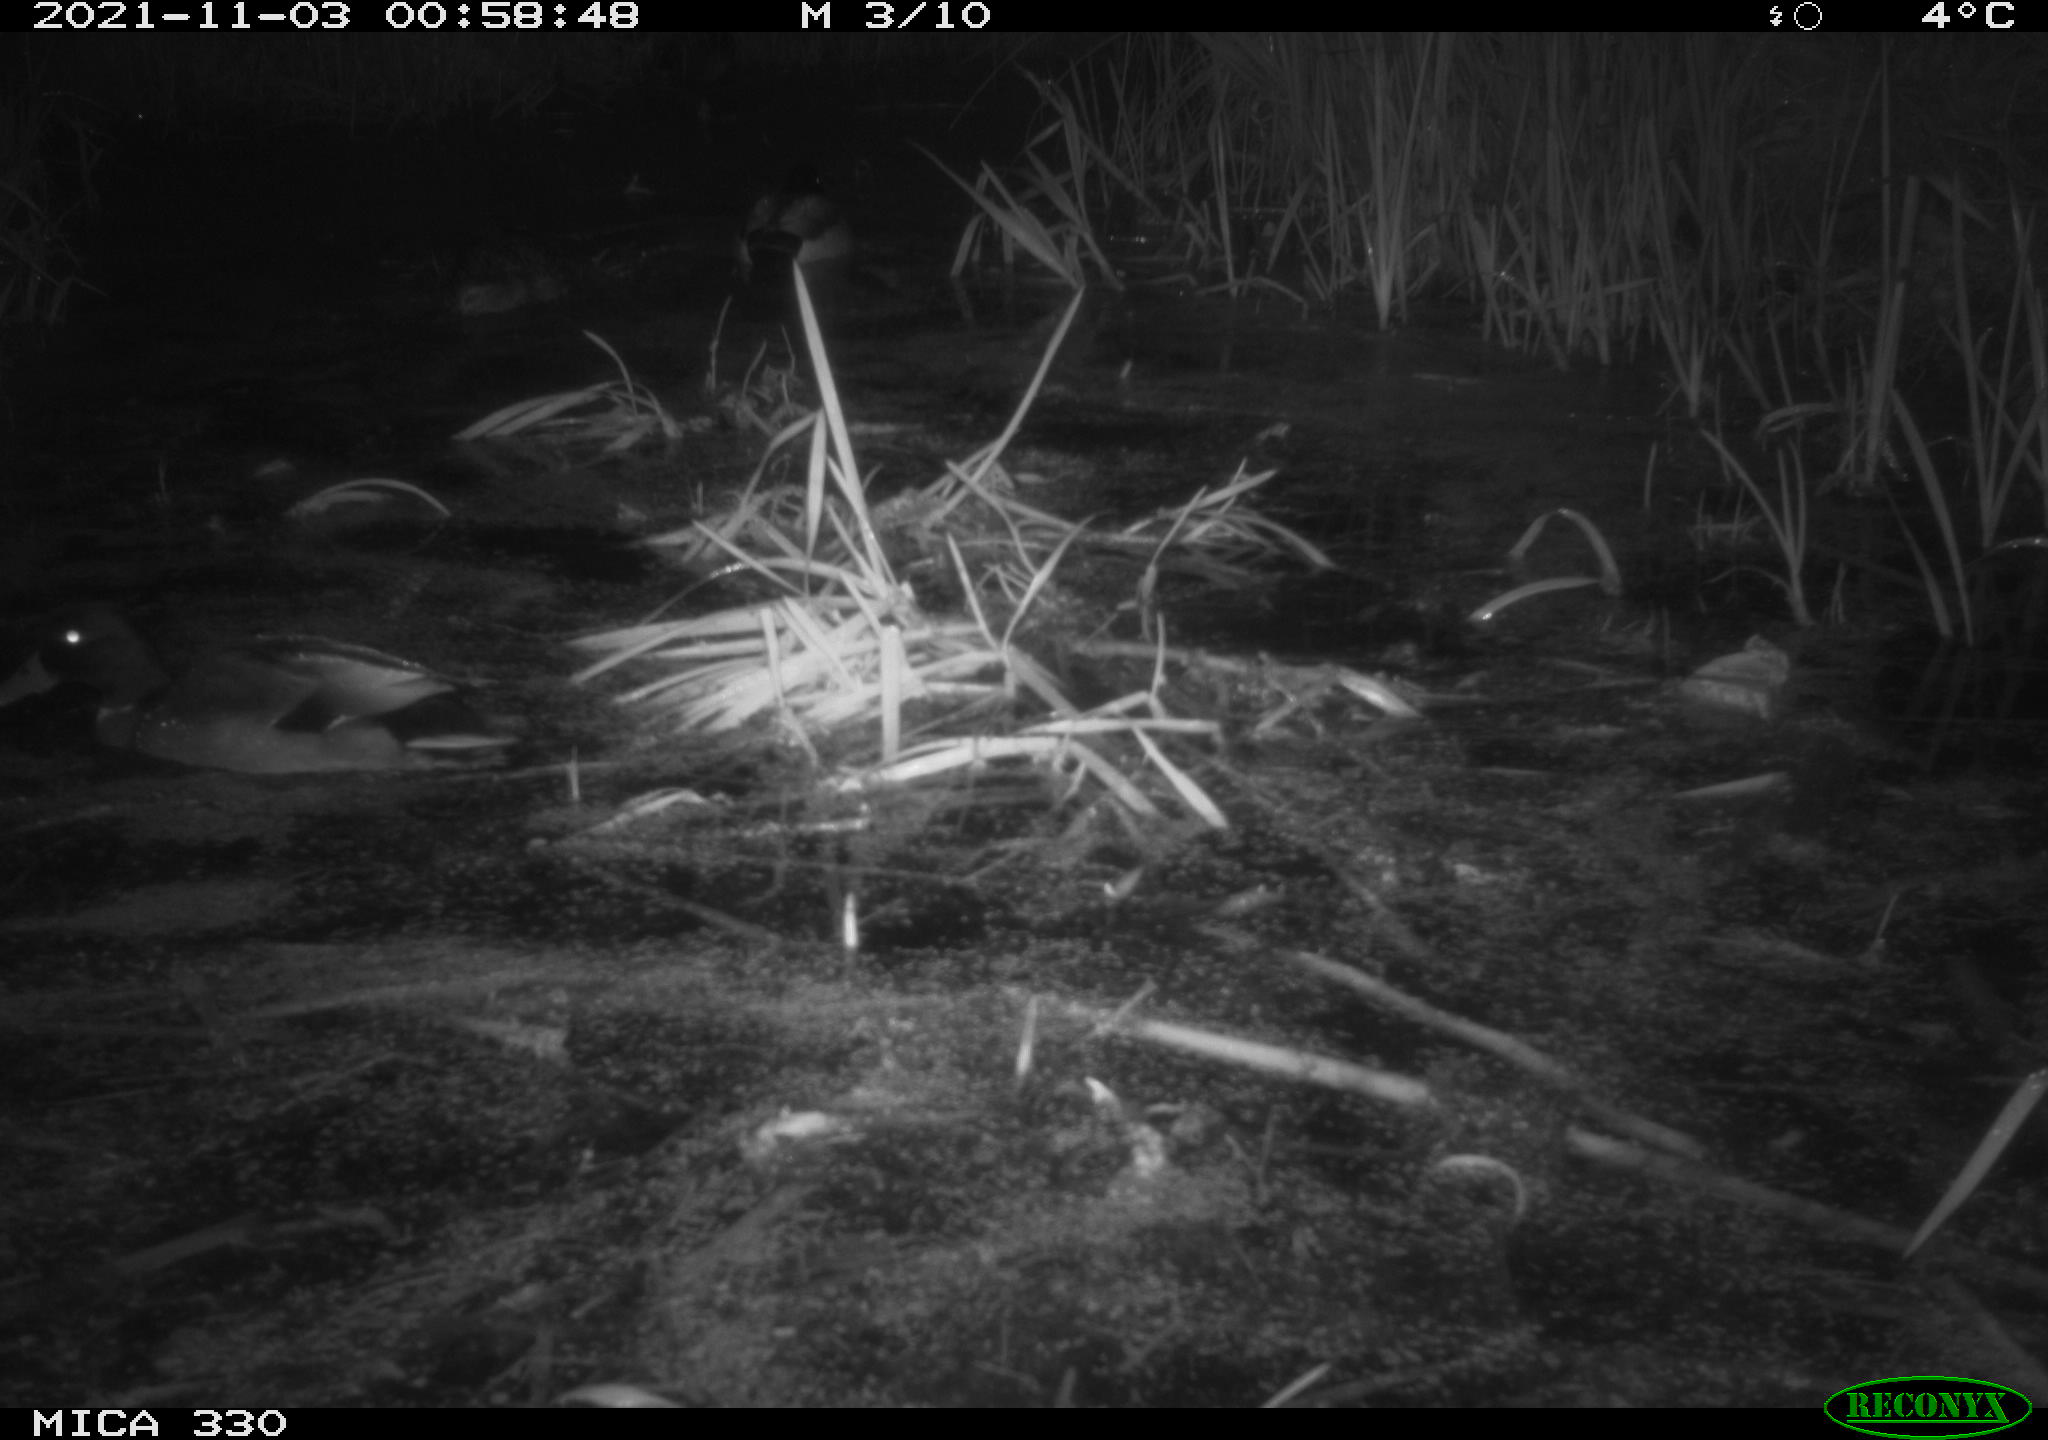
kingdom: Animalia
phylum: Chordata
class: Aves
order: Anseriformes
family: Anatidae
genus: Anas
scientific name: Anas platyrhynchos
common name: Mallard
